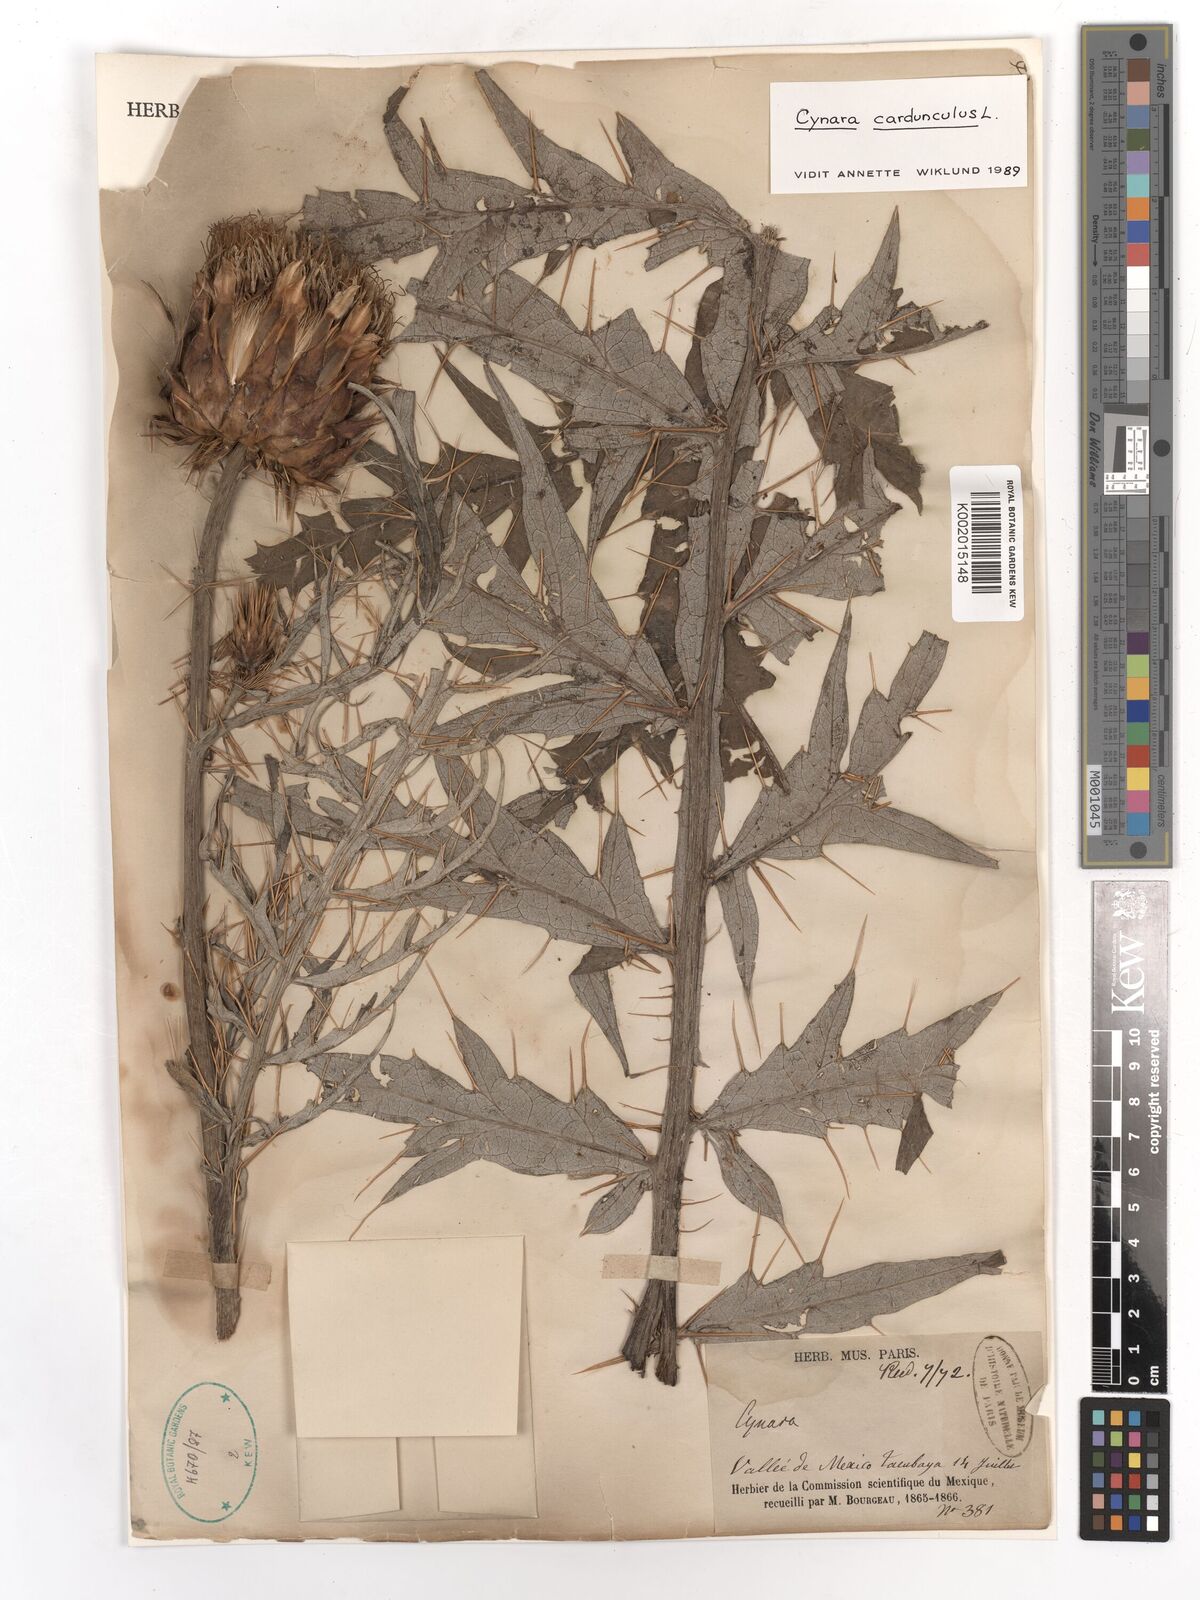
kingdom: Plantae
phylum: Tracheophyta
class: Magnoliopsida
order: Asterales
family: Asteraceae
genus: Cynara
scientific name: Cynara cardunculus
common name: Globe artichoke
